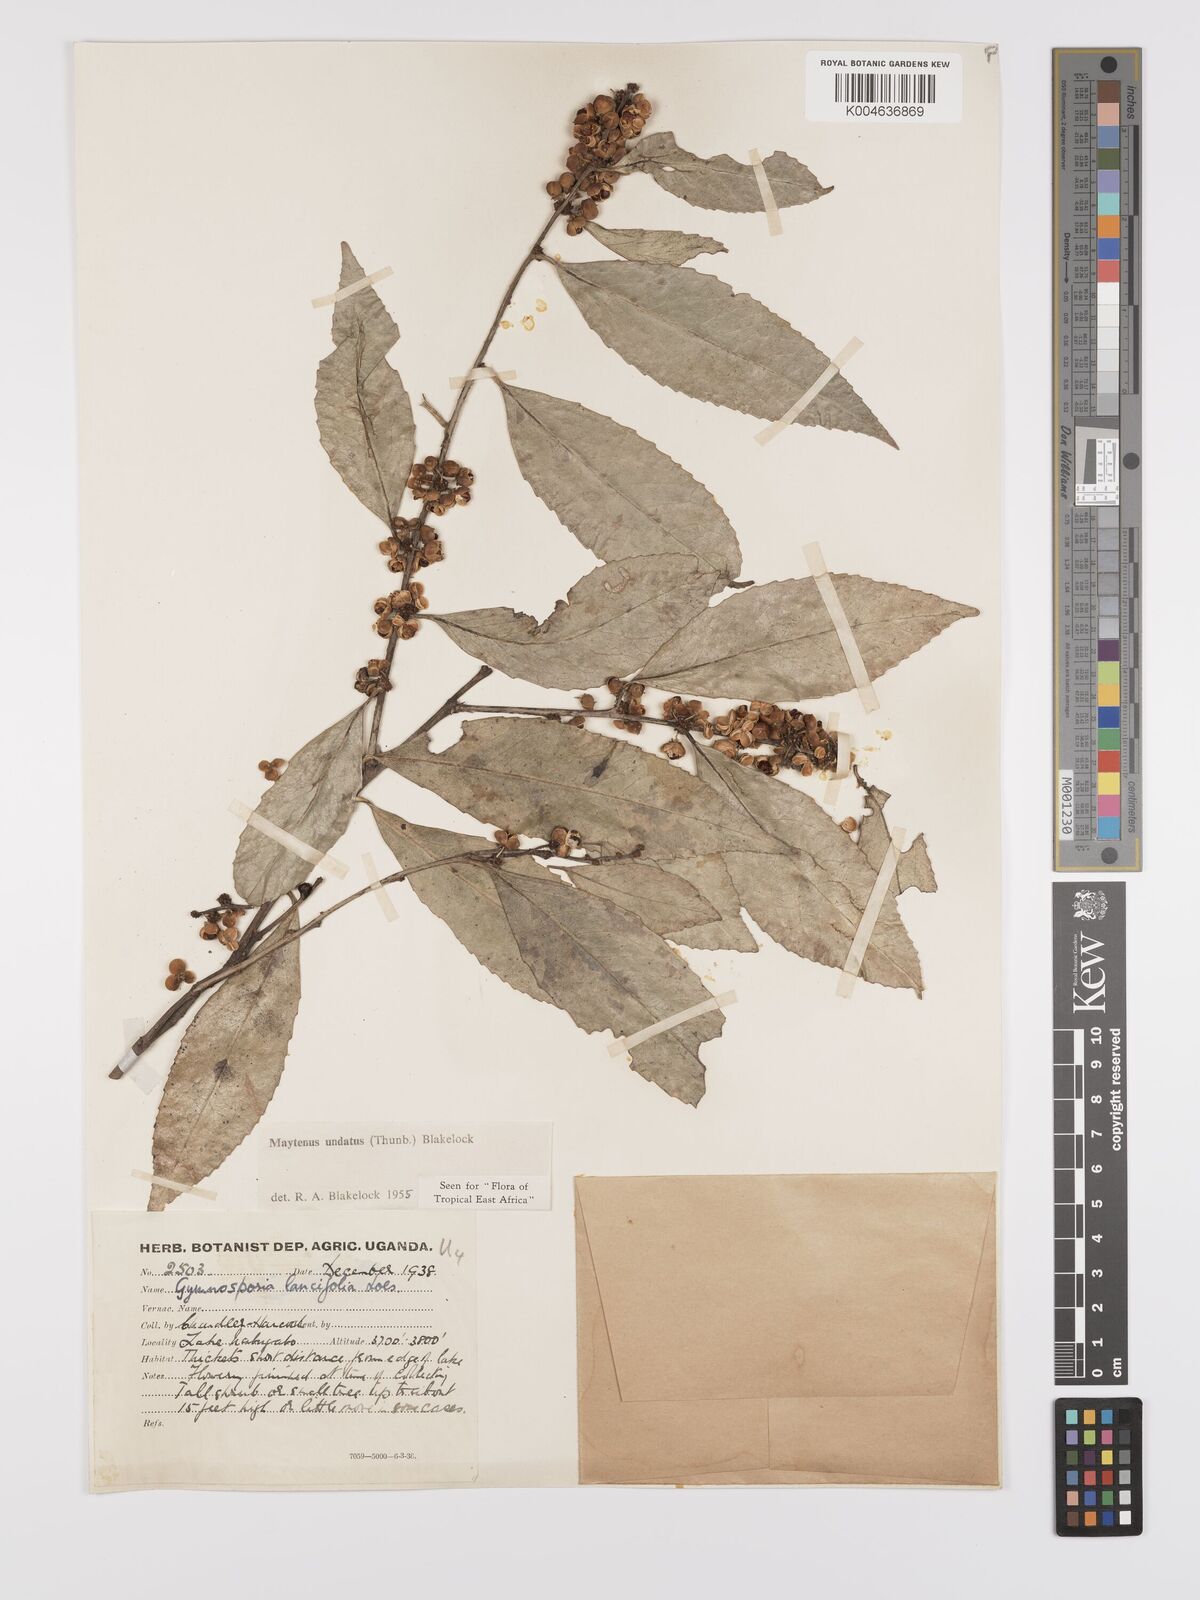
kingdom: Plantae
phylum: Tracheophyta
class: Magnoliopsida
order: Celastrales
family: Celastraceae
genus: Gymnosporia
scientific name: Gymnosporia undata
